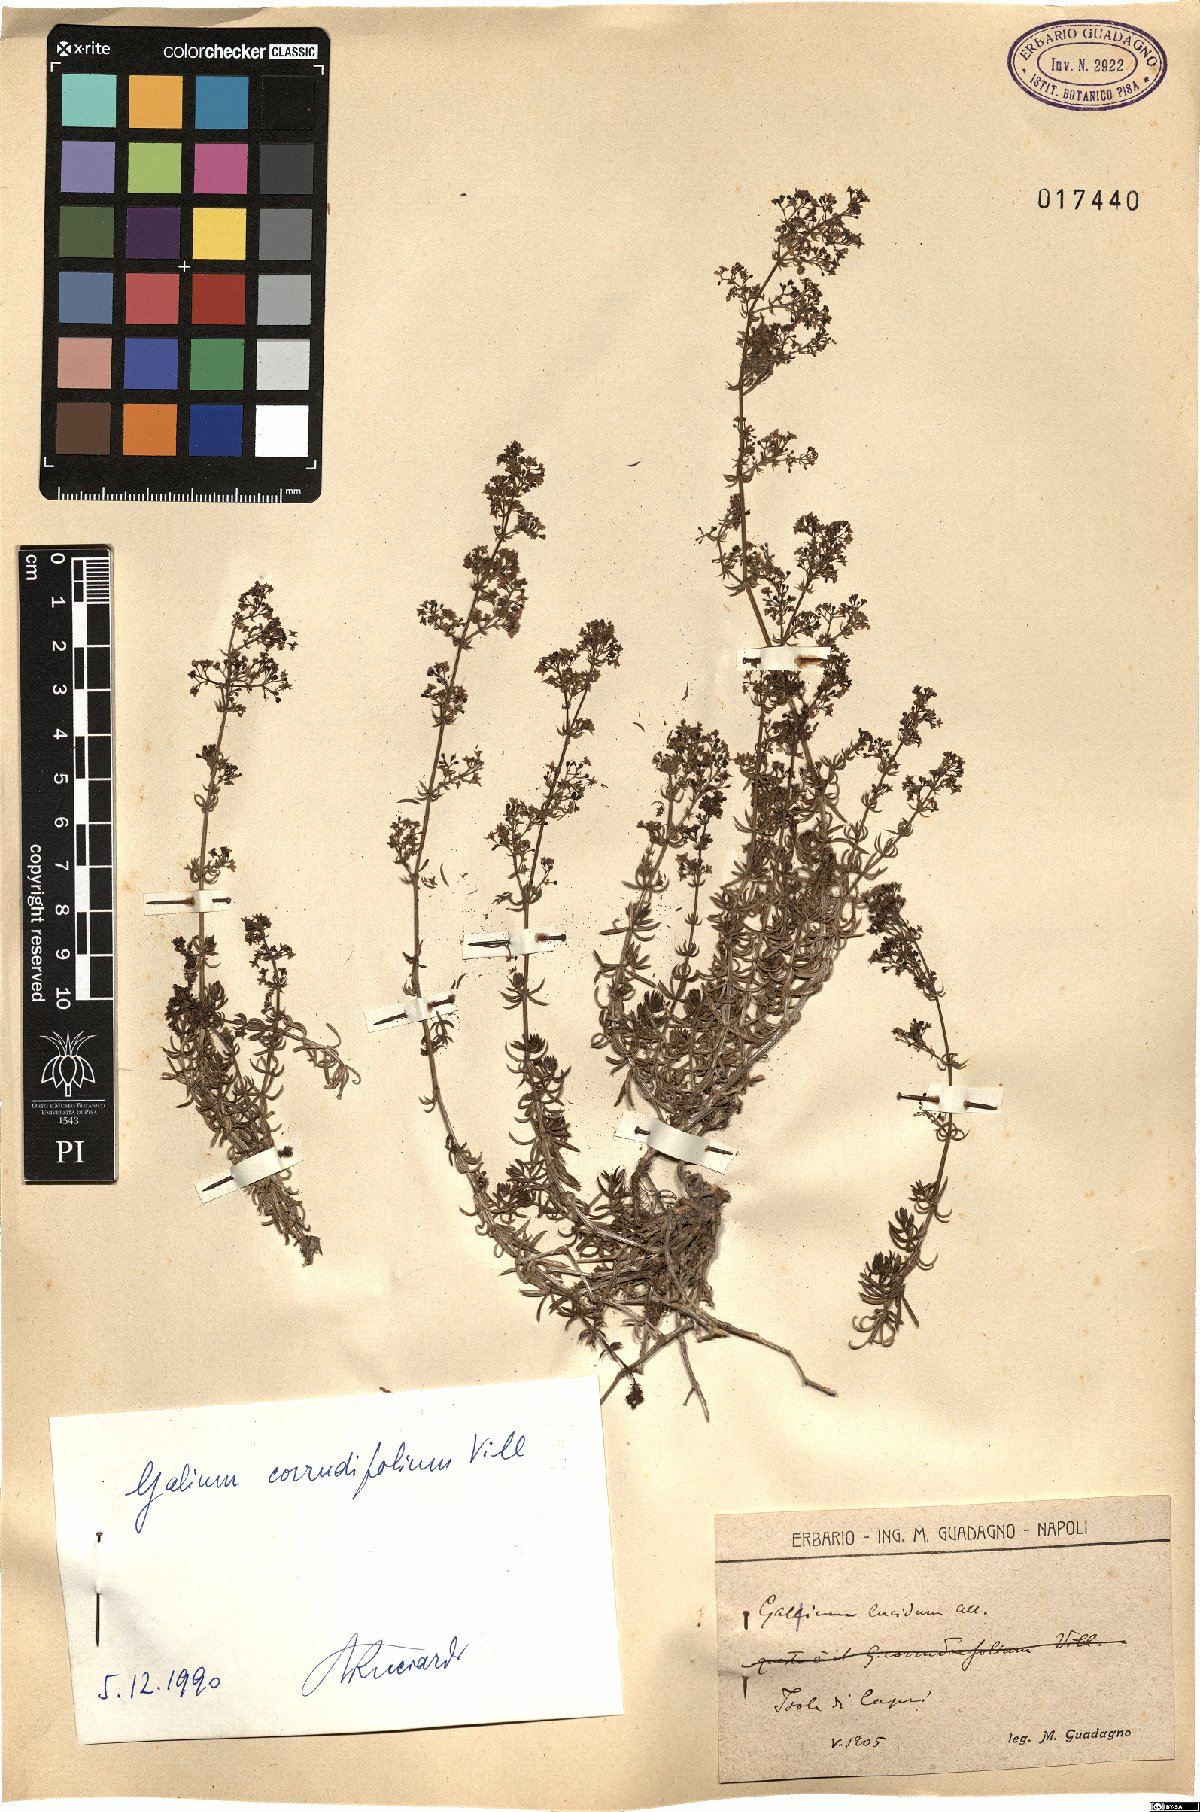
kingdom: Plantae
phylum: Tracheophyta
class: Magnoliopsida
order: Gentianales
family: Rubiaceae
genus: Galium
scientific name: Galium lucidum
